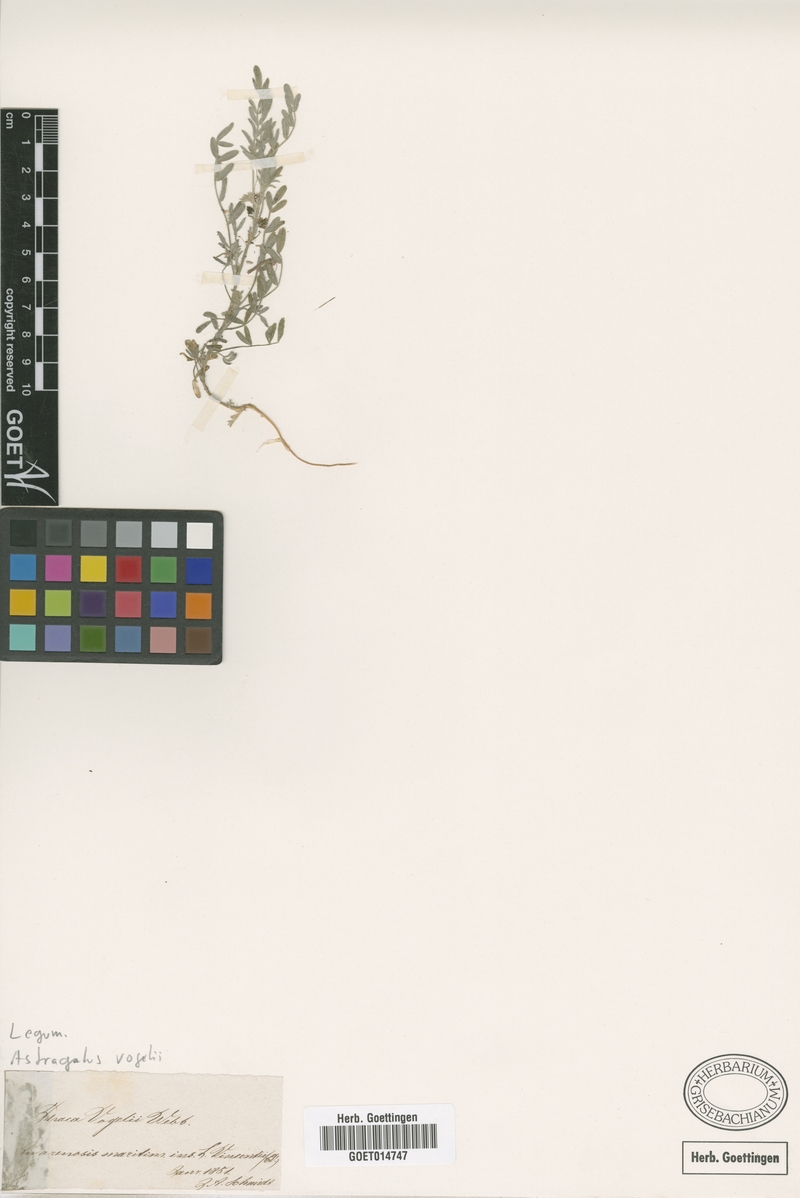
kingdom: Plantae
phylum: Tracheophyta
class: Magnoliopsida
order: Fabales
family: Fabaceae
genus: Astragalus
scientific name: Astragalus vogelii
